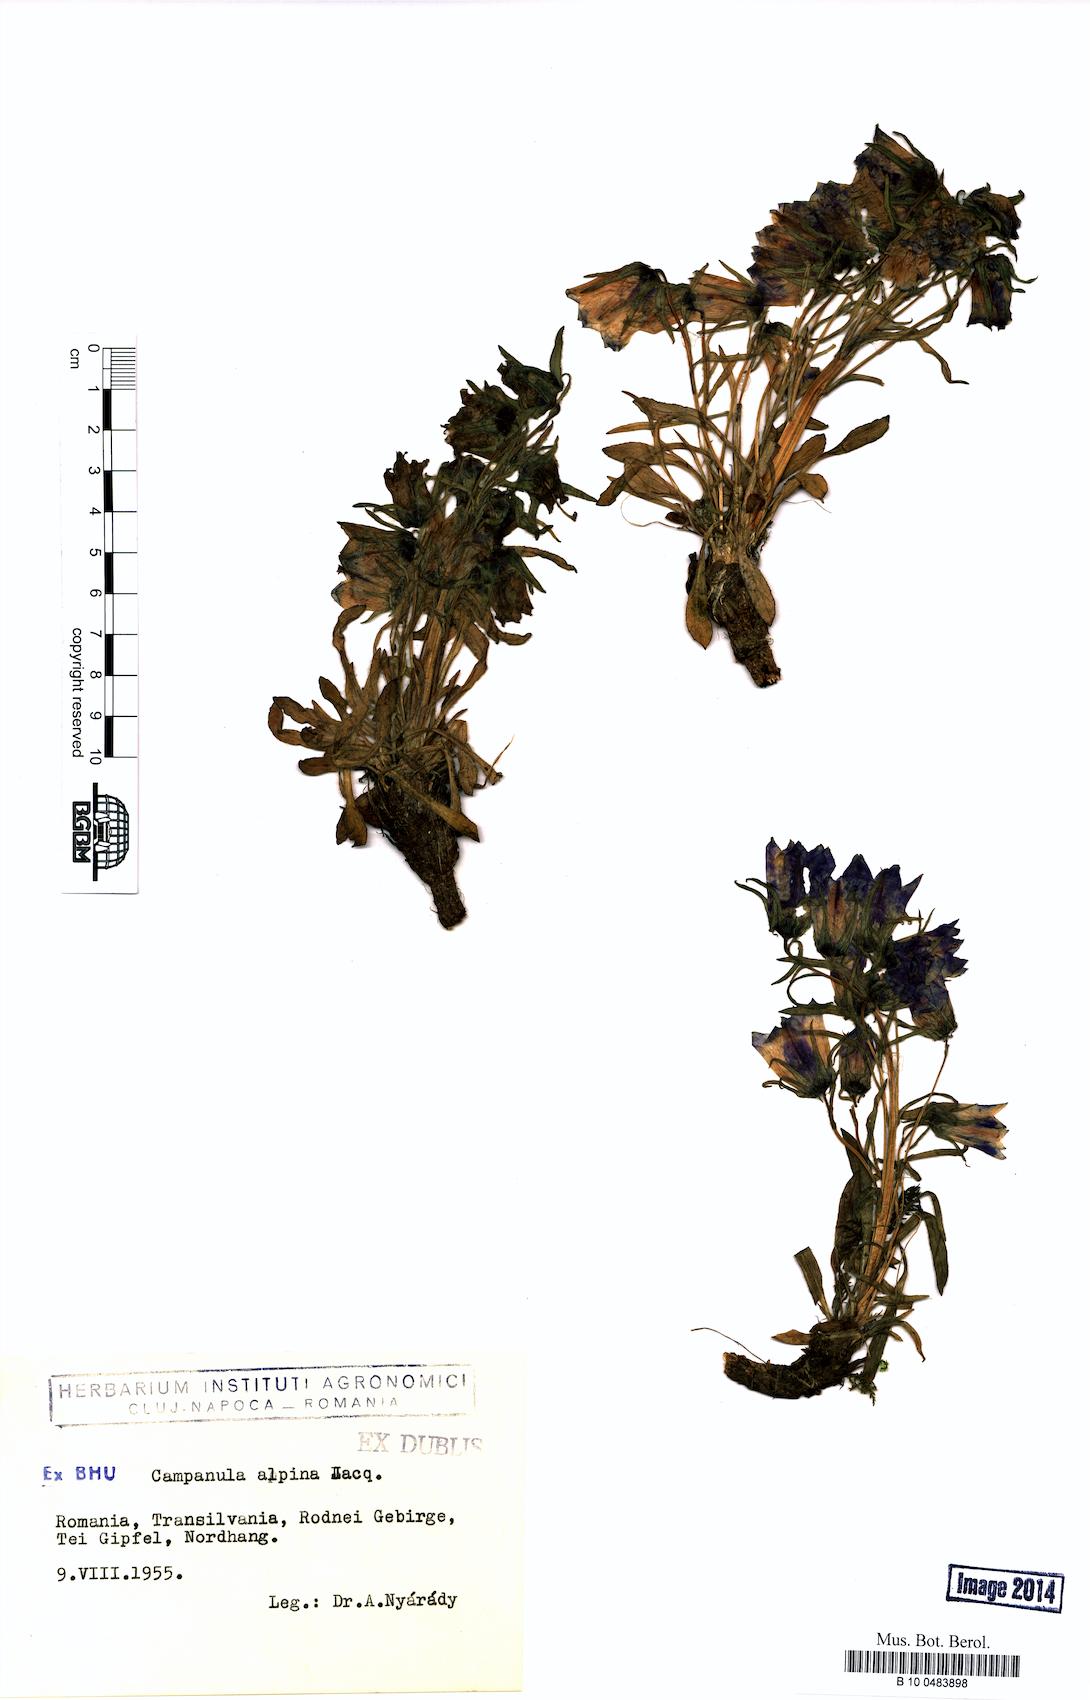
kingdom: Plantae
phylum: Tracheophyta
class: Magnoliopsida
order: Asterales
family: Campanulaceae
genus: Campanula
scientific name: Campanula alpina
